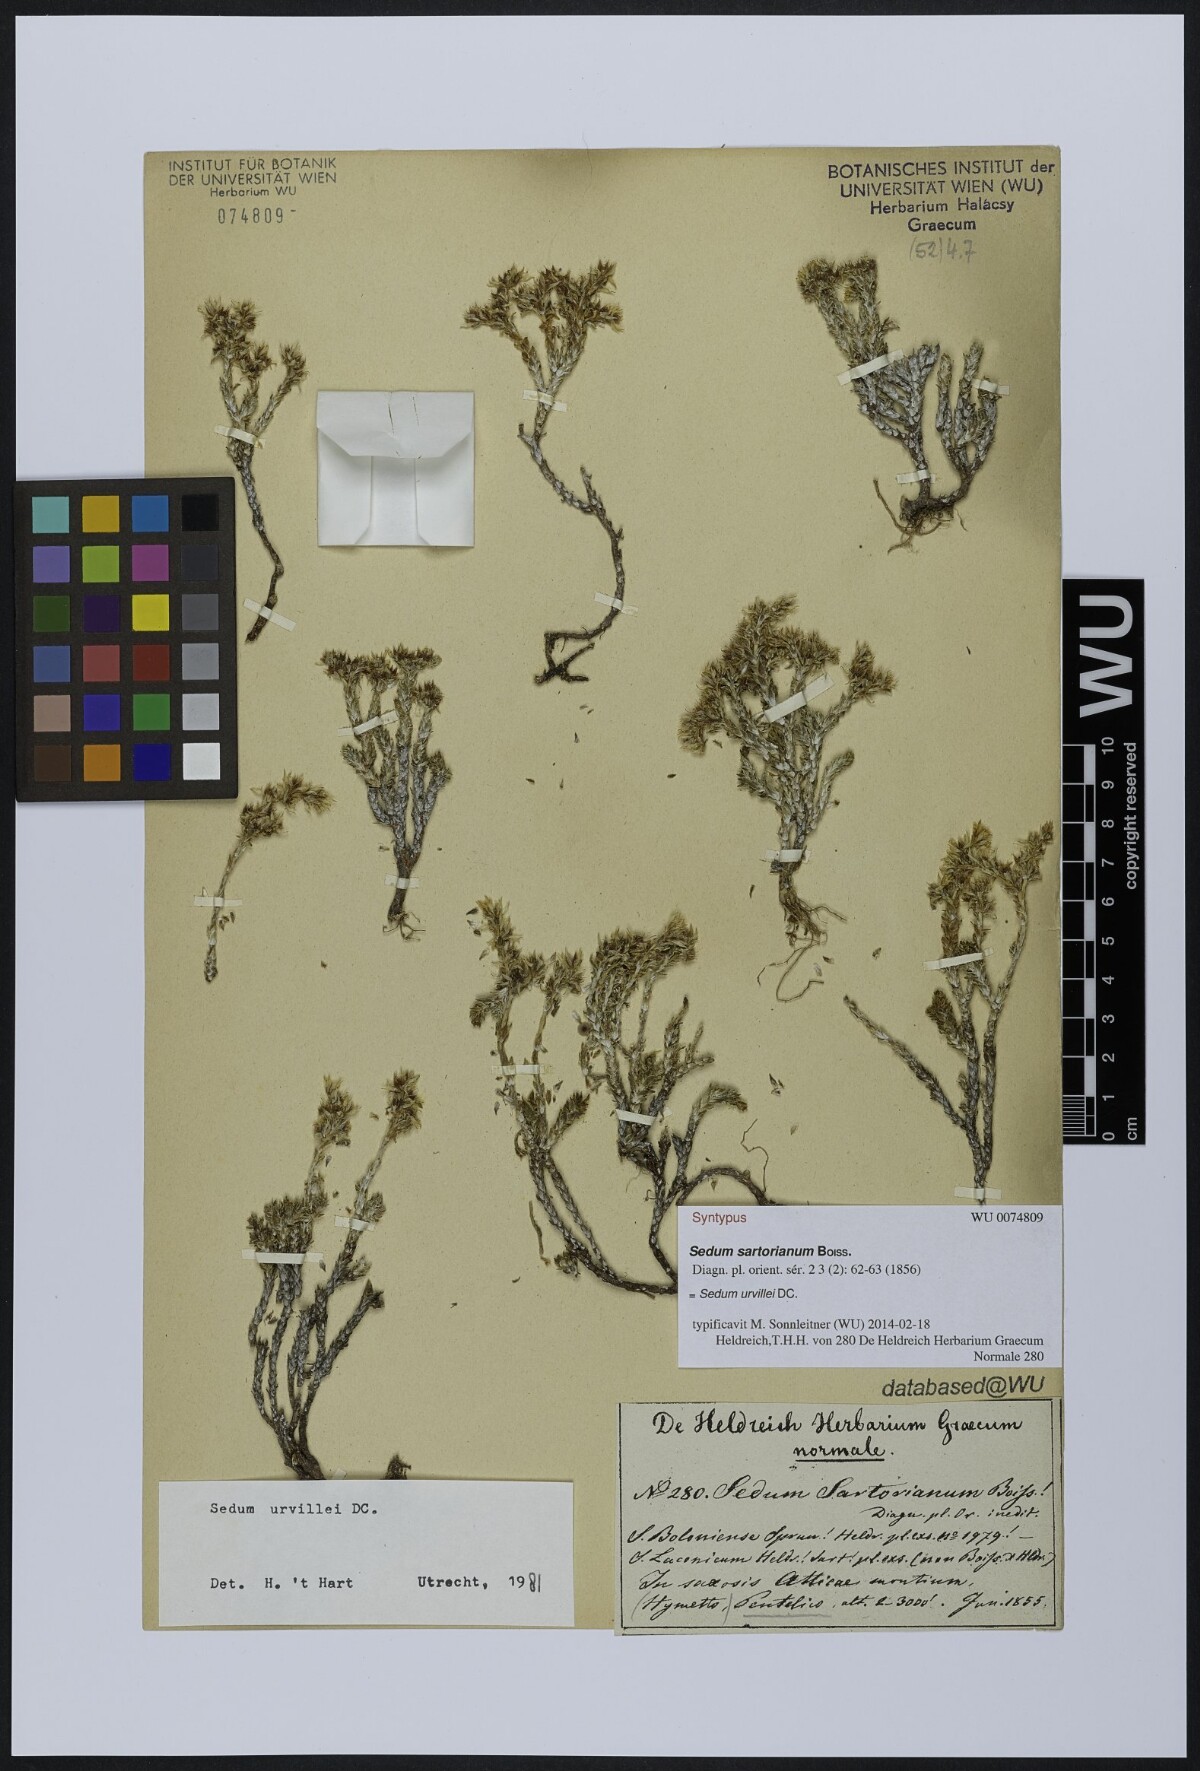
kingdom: Plantae
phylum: Tracheophyta
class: Magnoliopsida
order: Saxifragales
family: Crassulaceae
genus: Sedum
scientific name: Sedum urvillei
